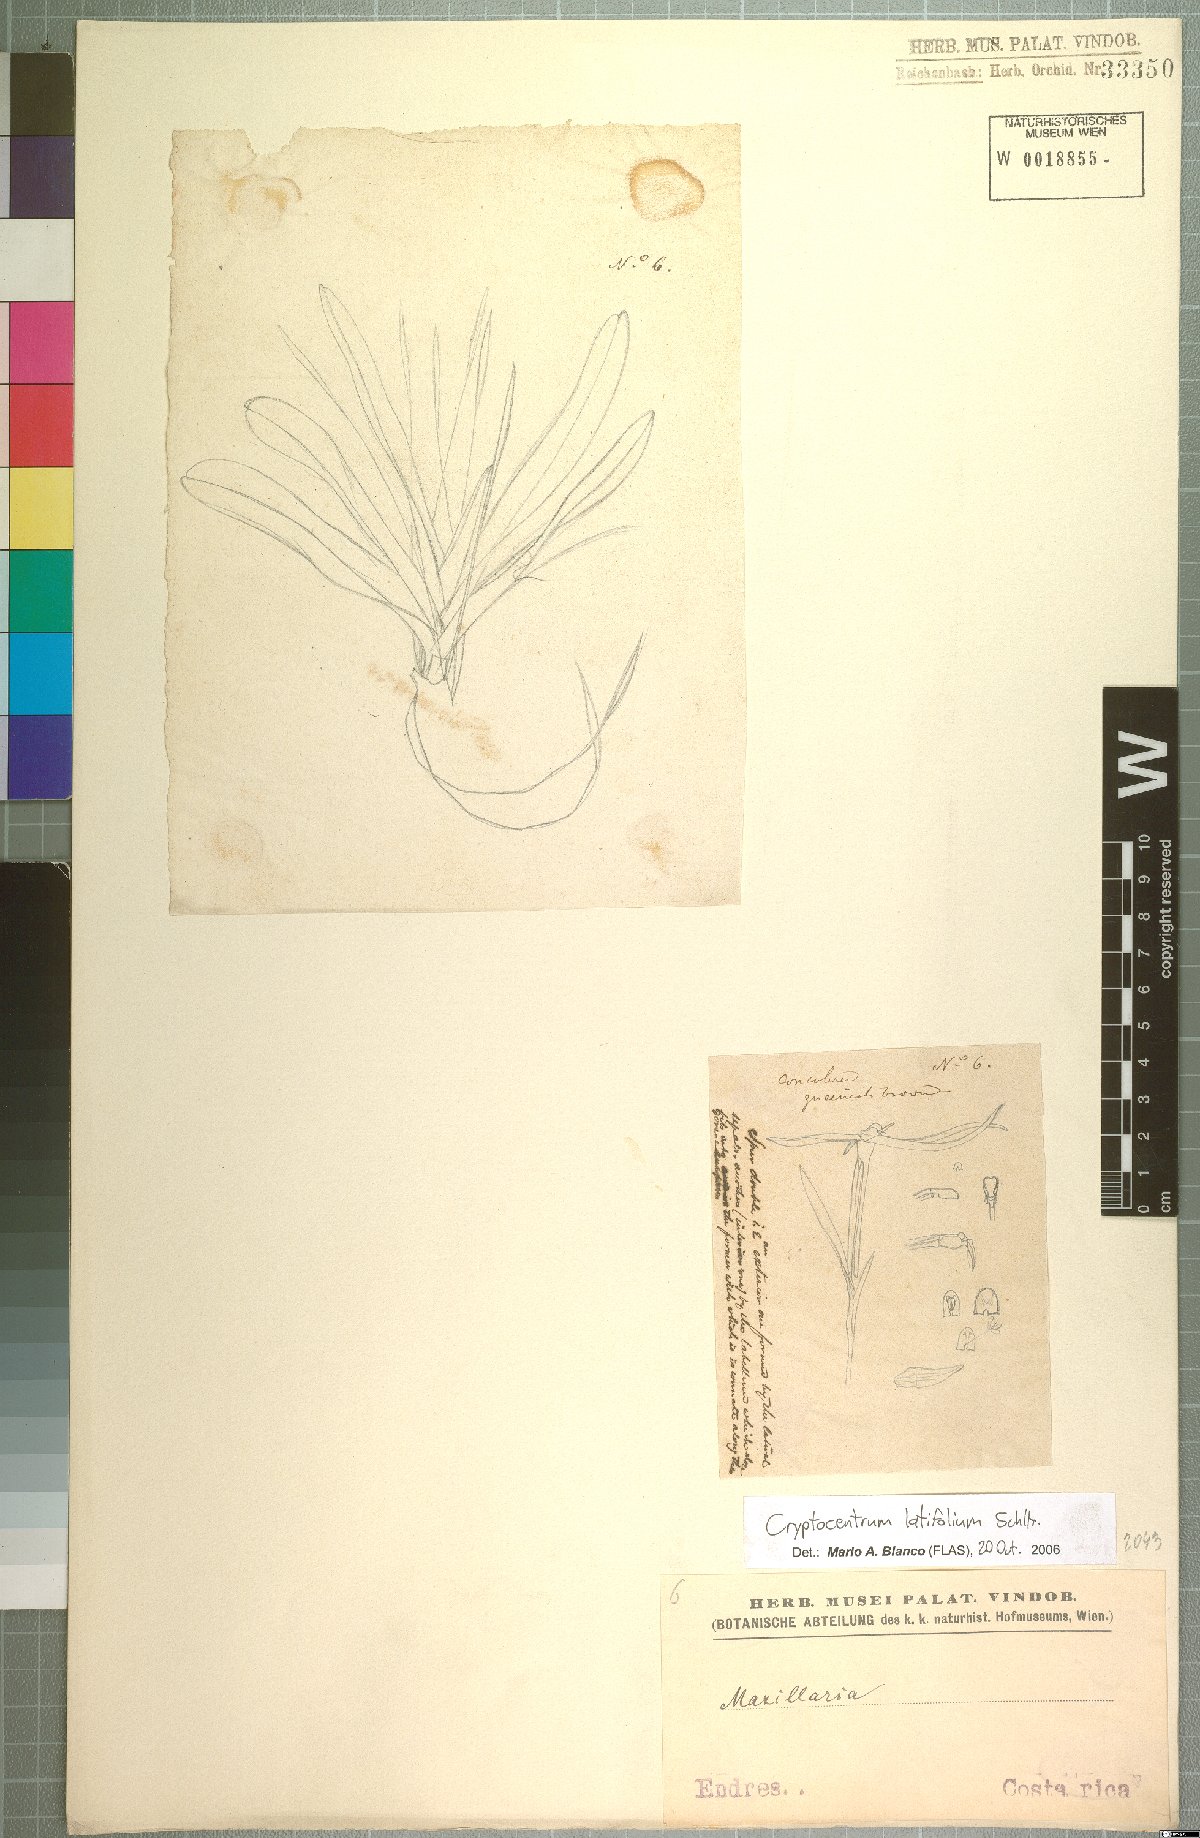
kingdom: Plantae
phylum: Tracheophyta
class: Liliopsida
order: Asparagales
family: Orchidaceae
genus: Maxillaria
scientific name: Maxillaria amplifoliata
